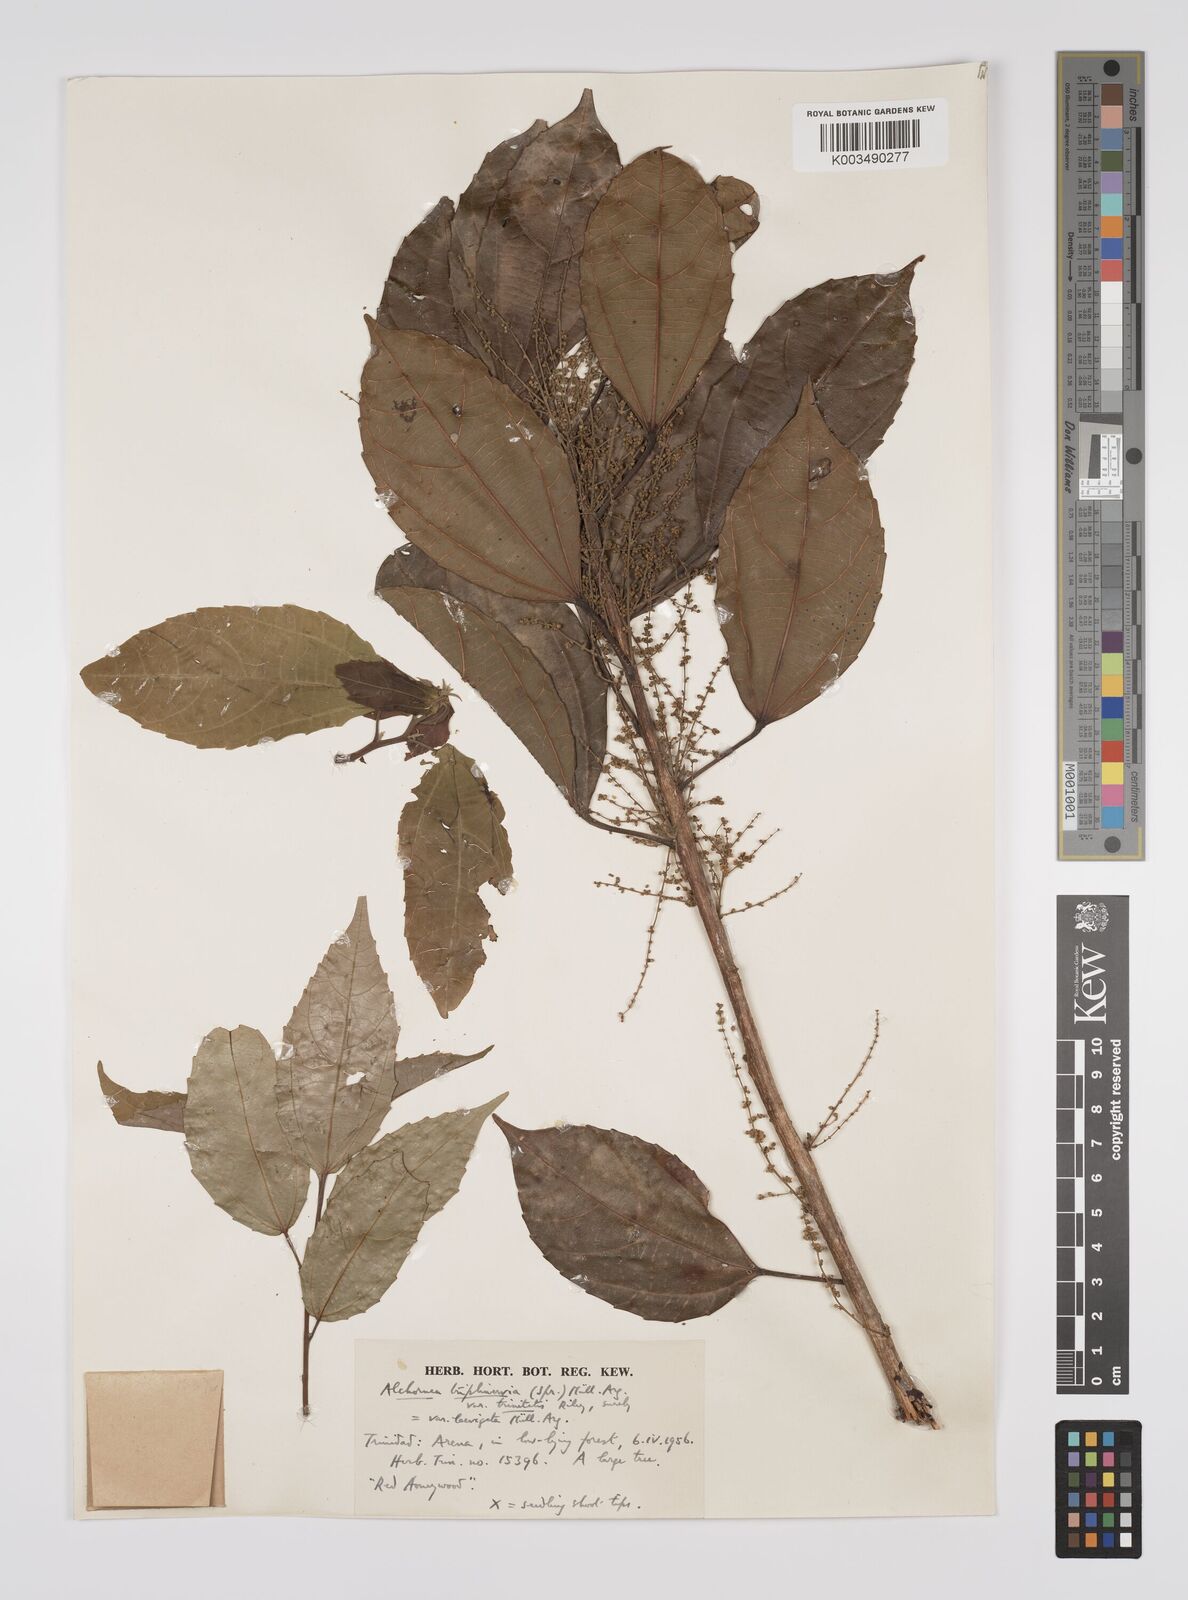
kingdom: Plantae
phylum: Tracheophyta
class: Magnoliopsida
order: Malpighiales
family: Euphorbiaceae
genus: Alchornea
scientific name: Alchornea triplinervia
